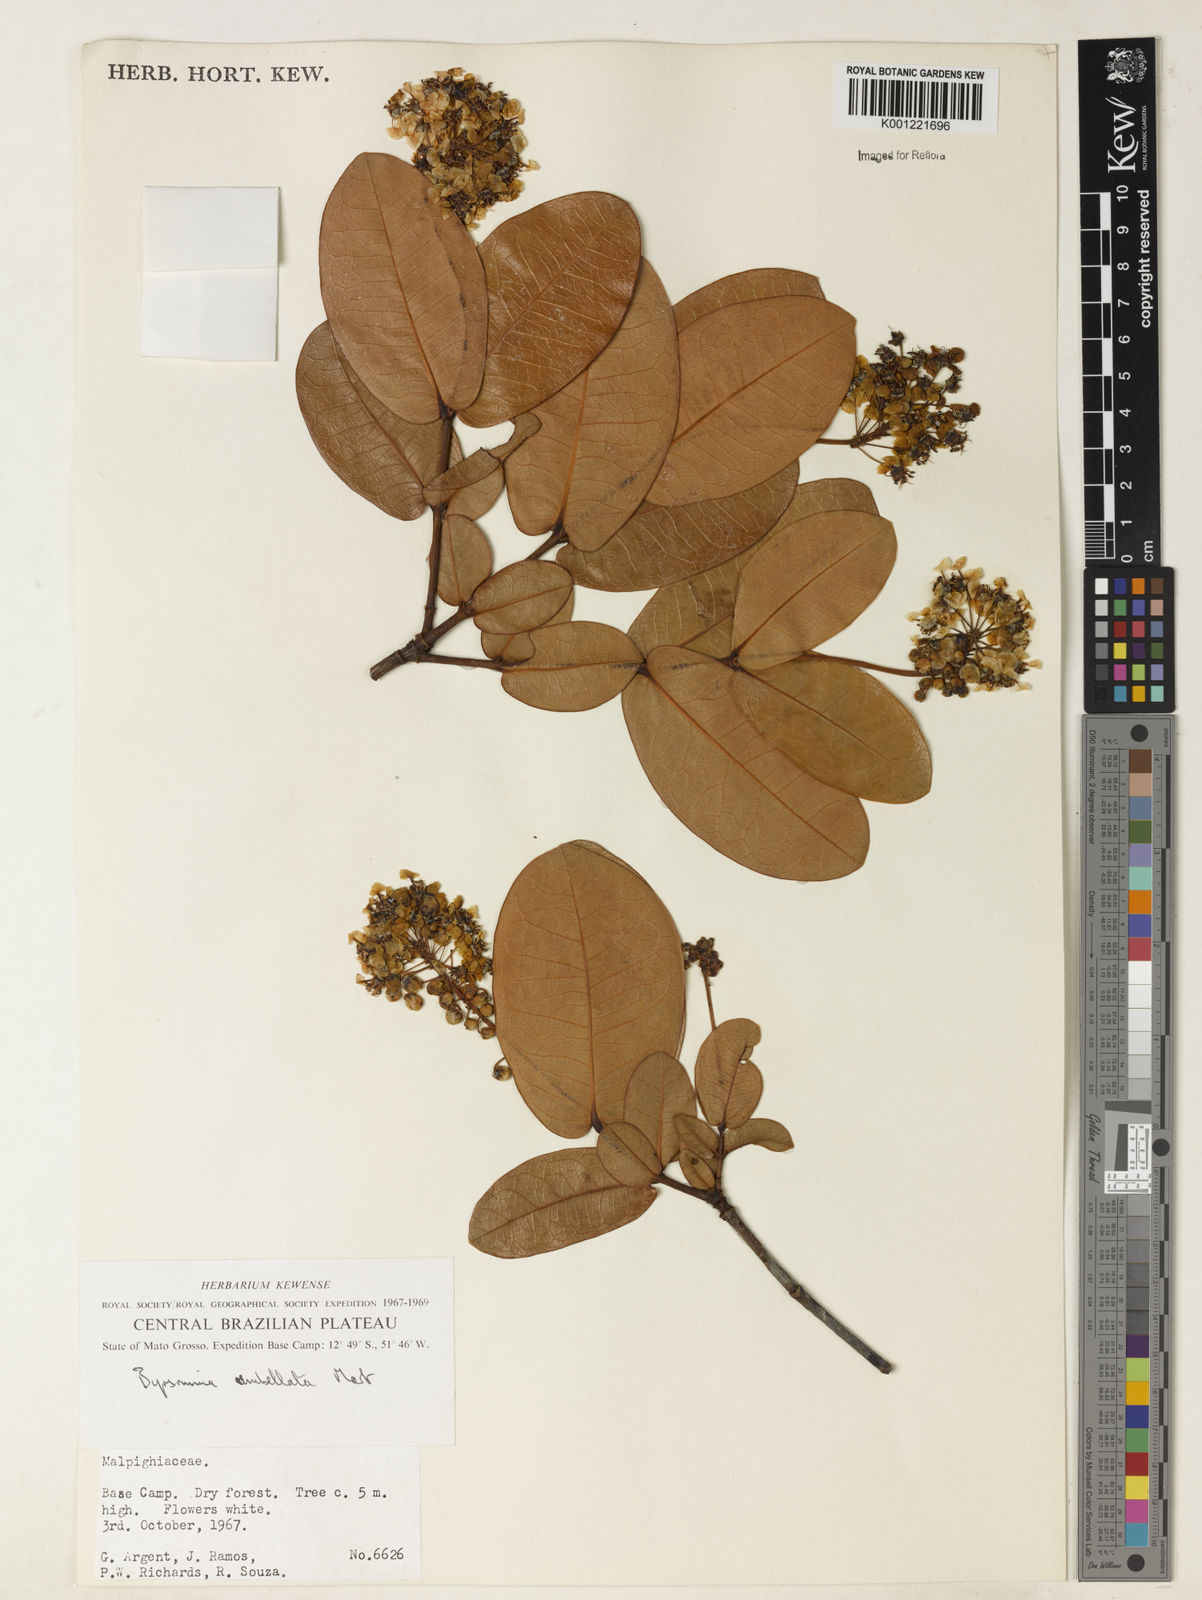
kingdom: Plantae
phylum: Tracheophyta
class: Magnoliopsida
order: Malpighiales
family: Malpighiaceae
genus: Byrsonima
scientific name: Byrsonima umbellata
